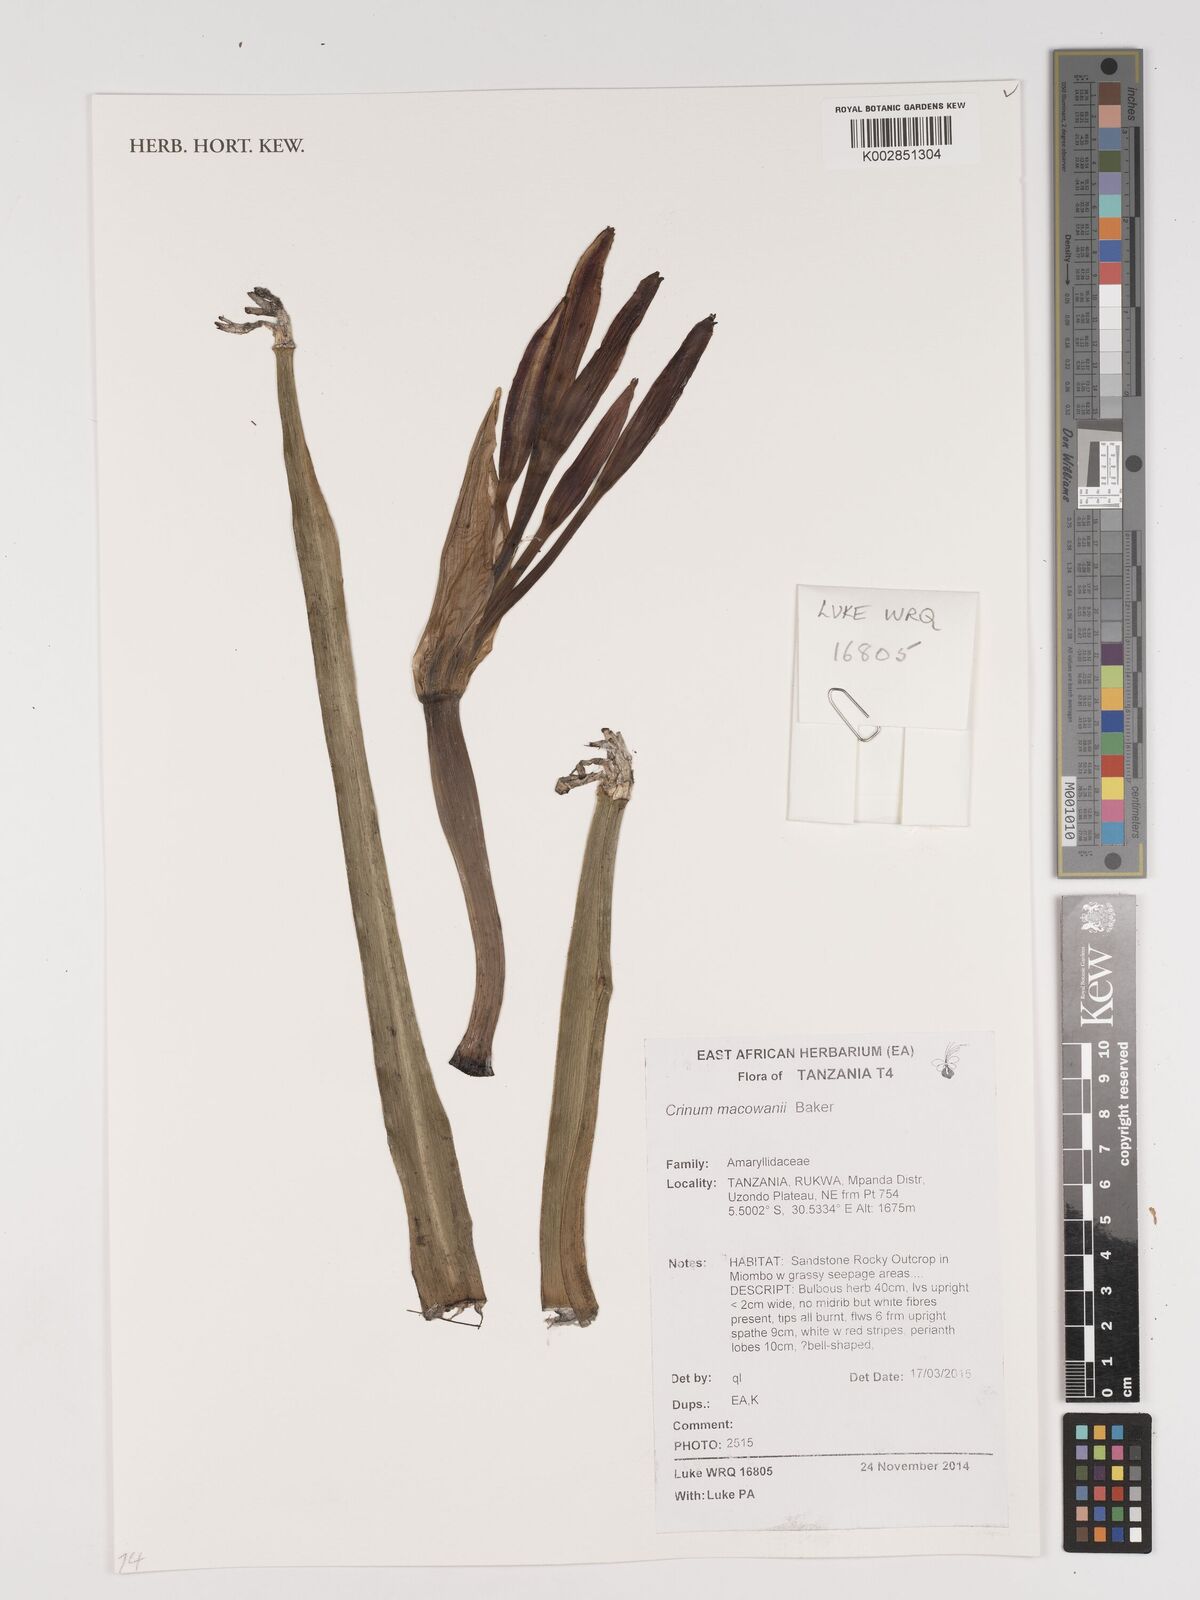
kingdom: Plantae
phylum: Tracheophyta
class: Liliopsida
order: Asparagales
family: Amaryllidaceae
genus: Crinum
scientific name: Crinum macowanii
